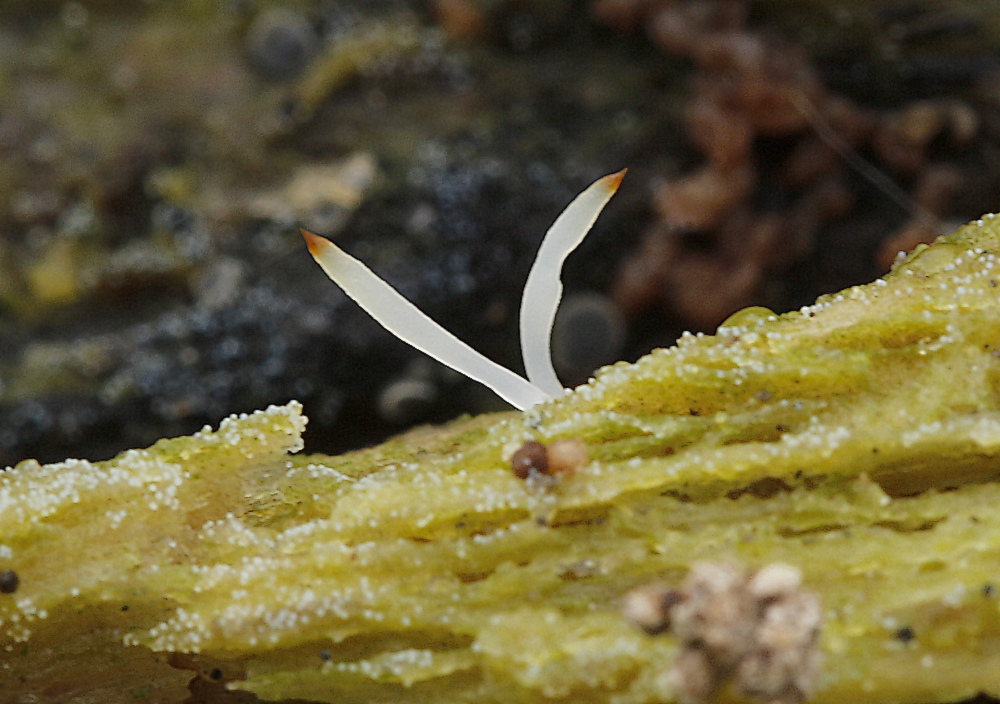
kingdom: Fungi
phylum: Basidiomycota
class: Agaricomycetes
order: Cantharellales
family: Hydnaceae
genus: Multiclavula
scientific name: Multiclavula mucida
